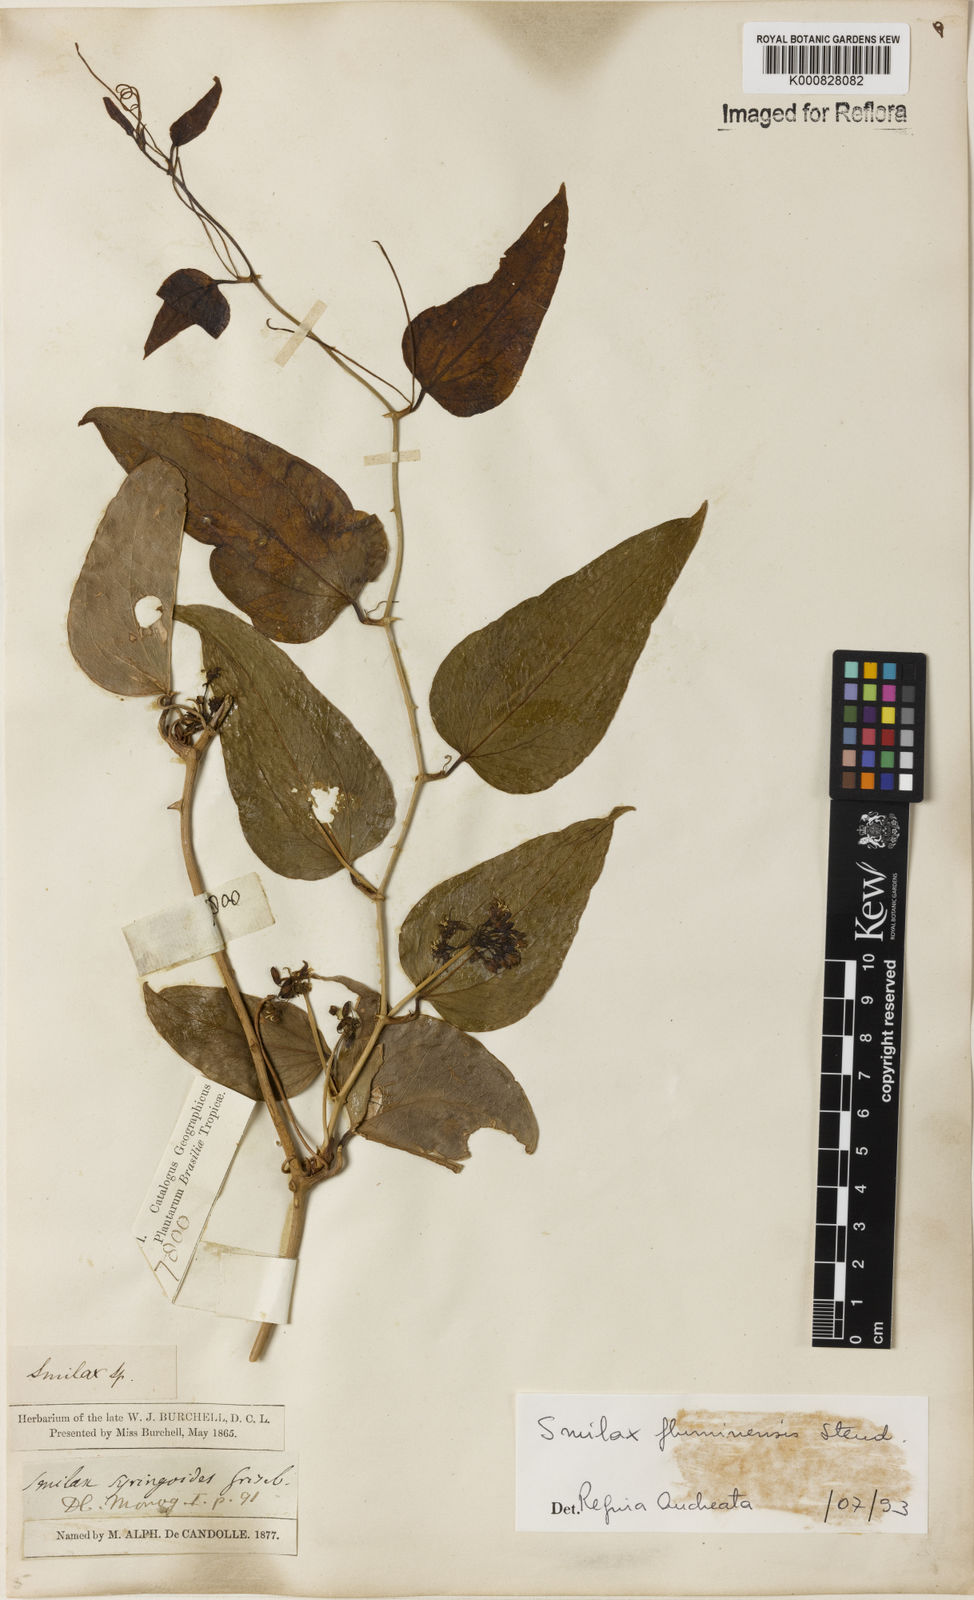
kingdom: Plantae
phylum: Tracheophyta
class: Liliopsida
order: Liliales
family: Smilacaceae
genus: Smilax
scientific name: Smilax fluminensis
